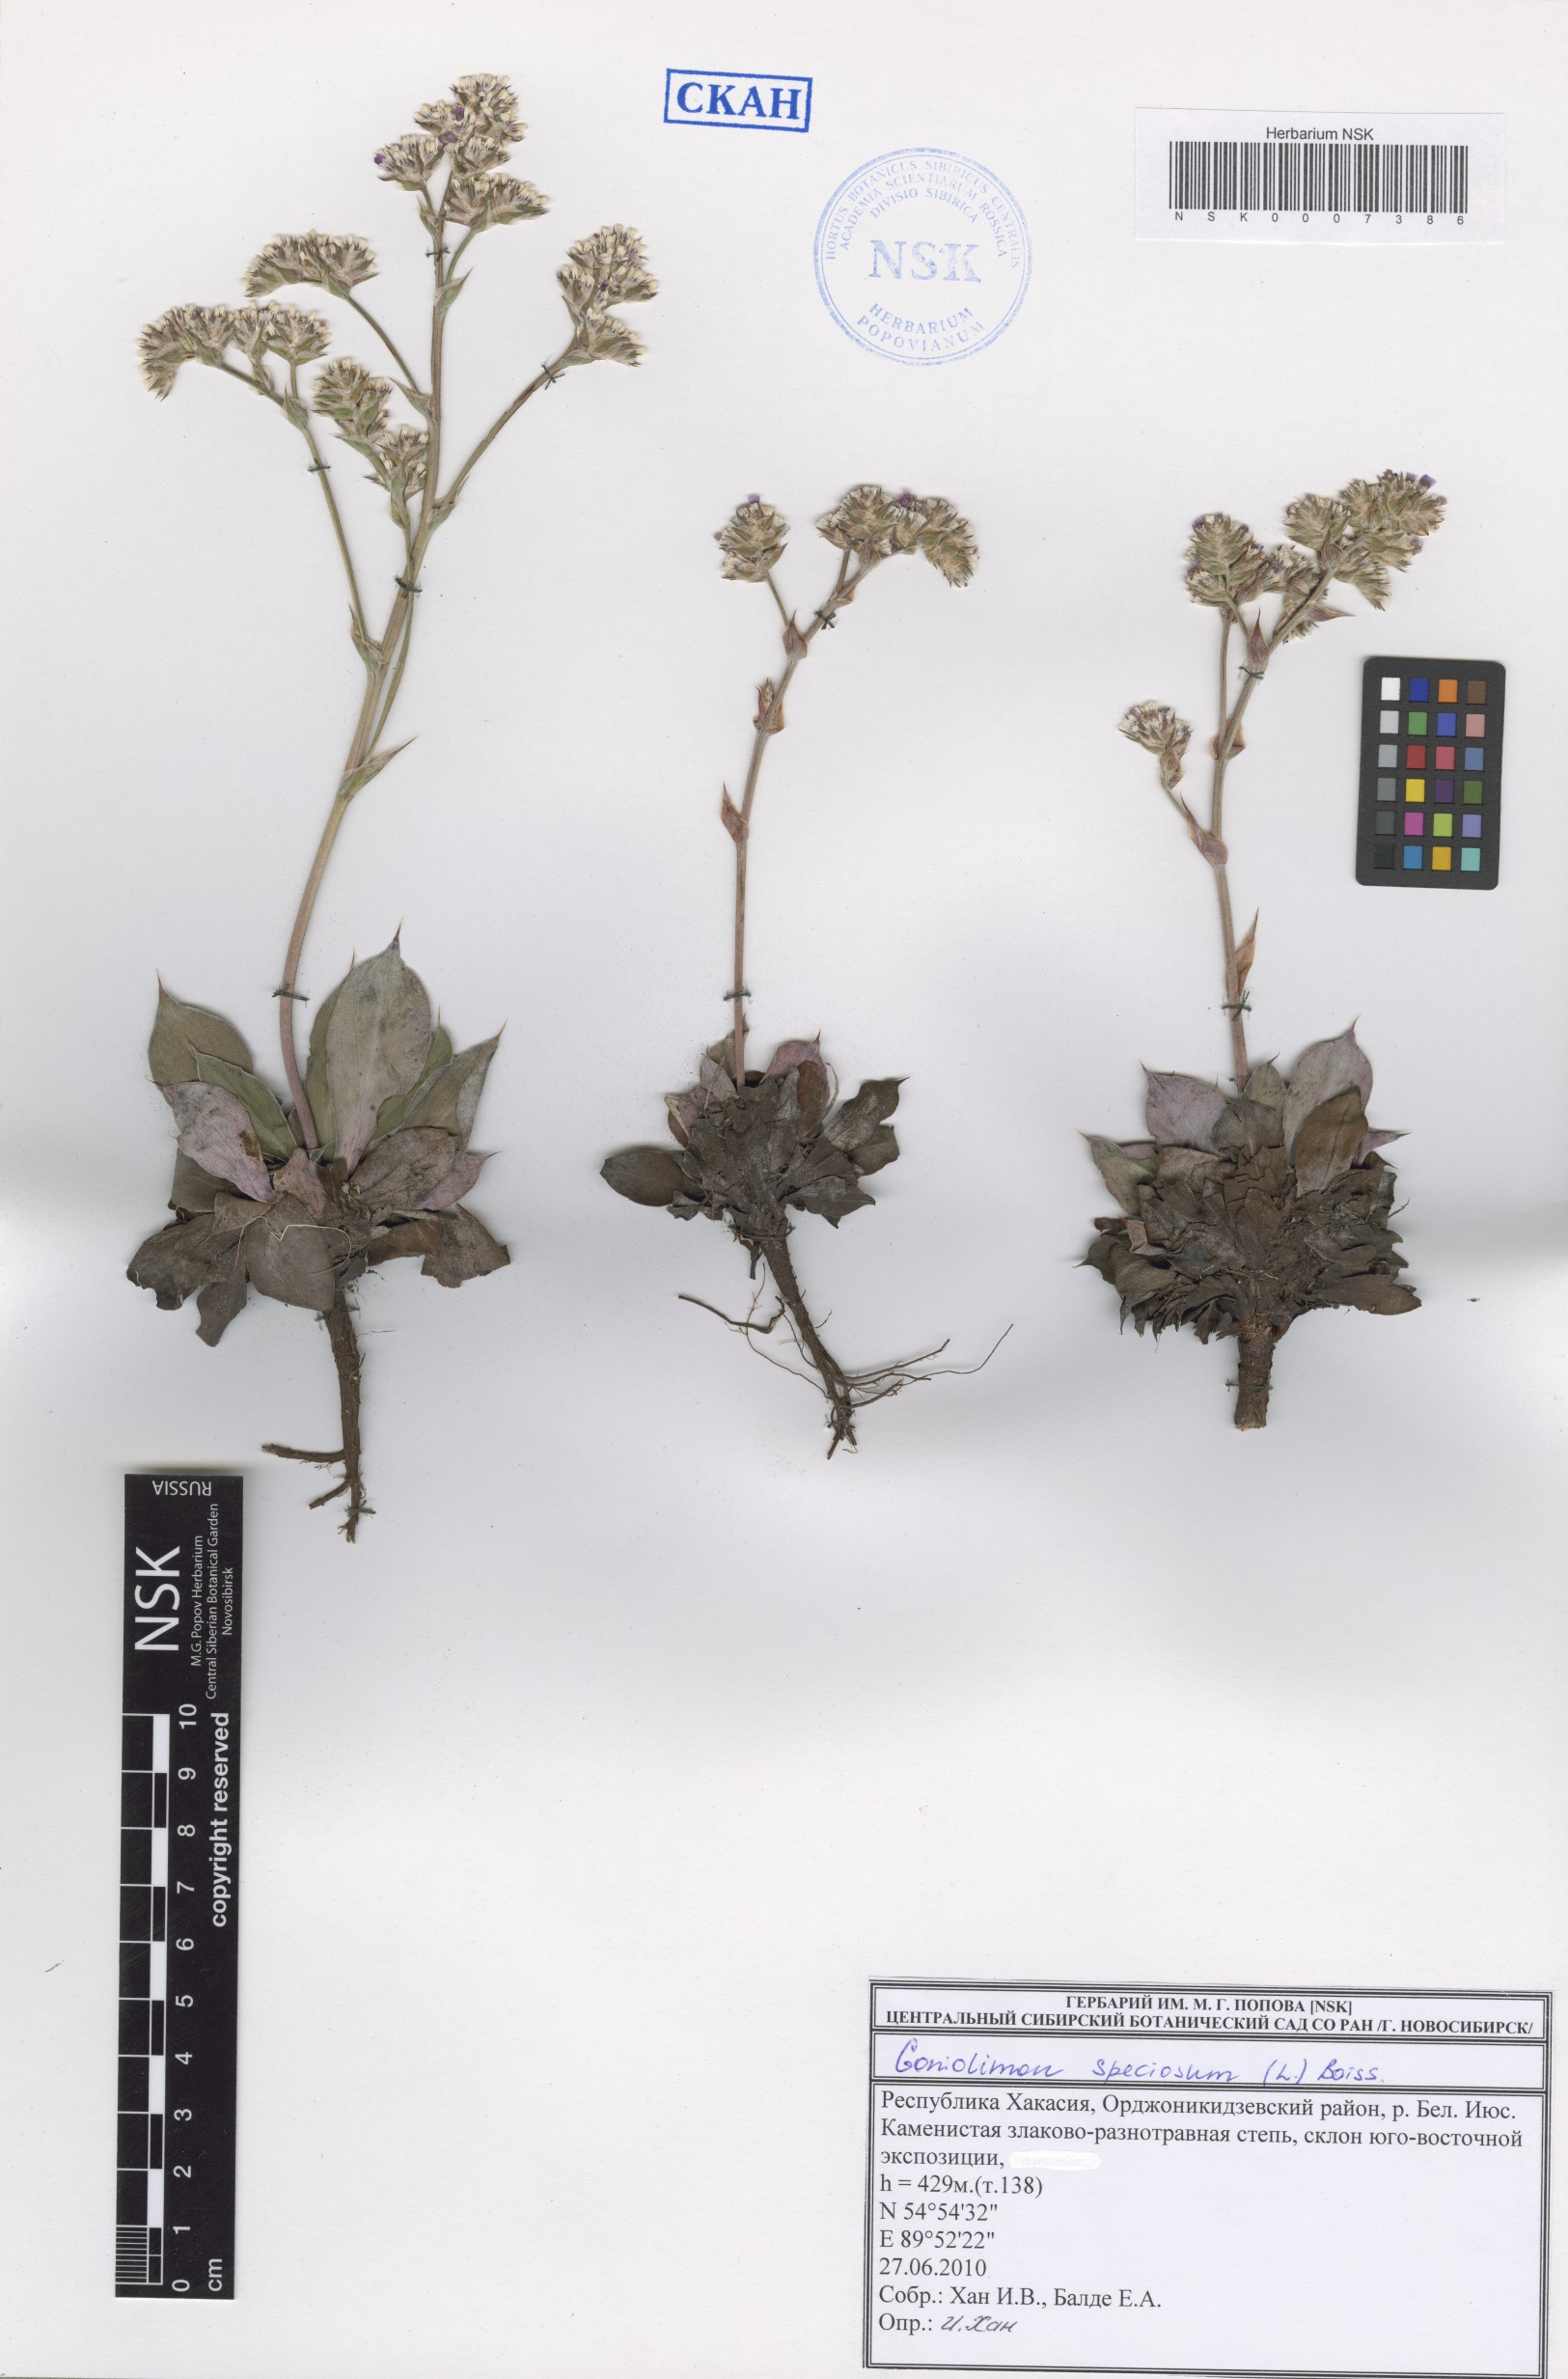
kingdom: Plantae
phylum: Tracheophyta
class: Magnoliopsida
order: Caryophyllales
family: Plumbaginaceae
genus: Goniolimon
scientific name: Goniolimon speciosum
